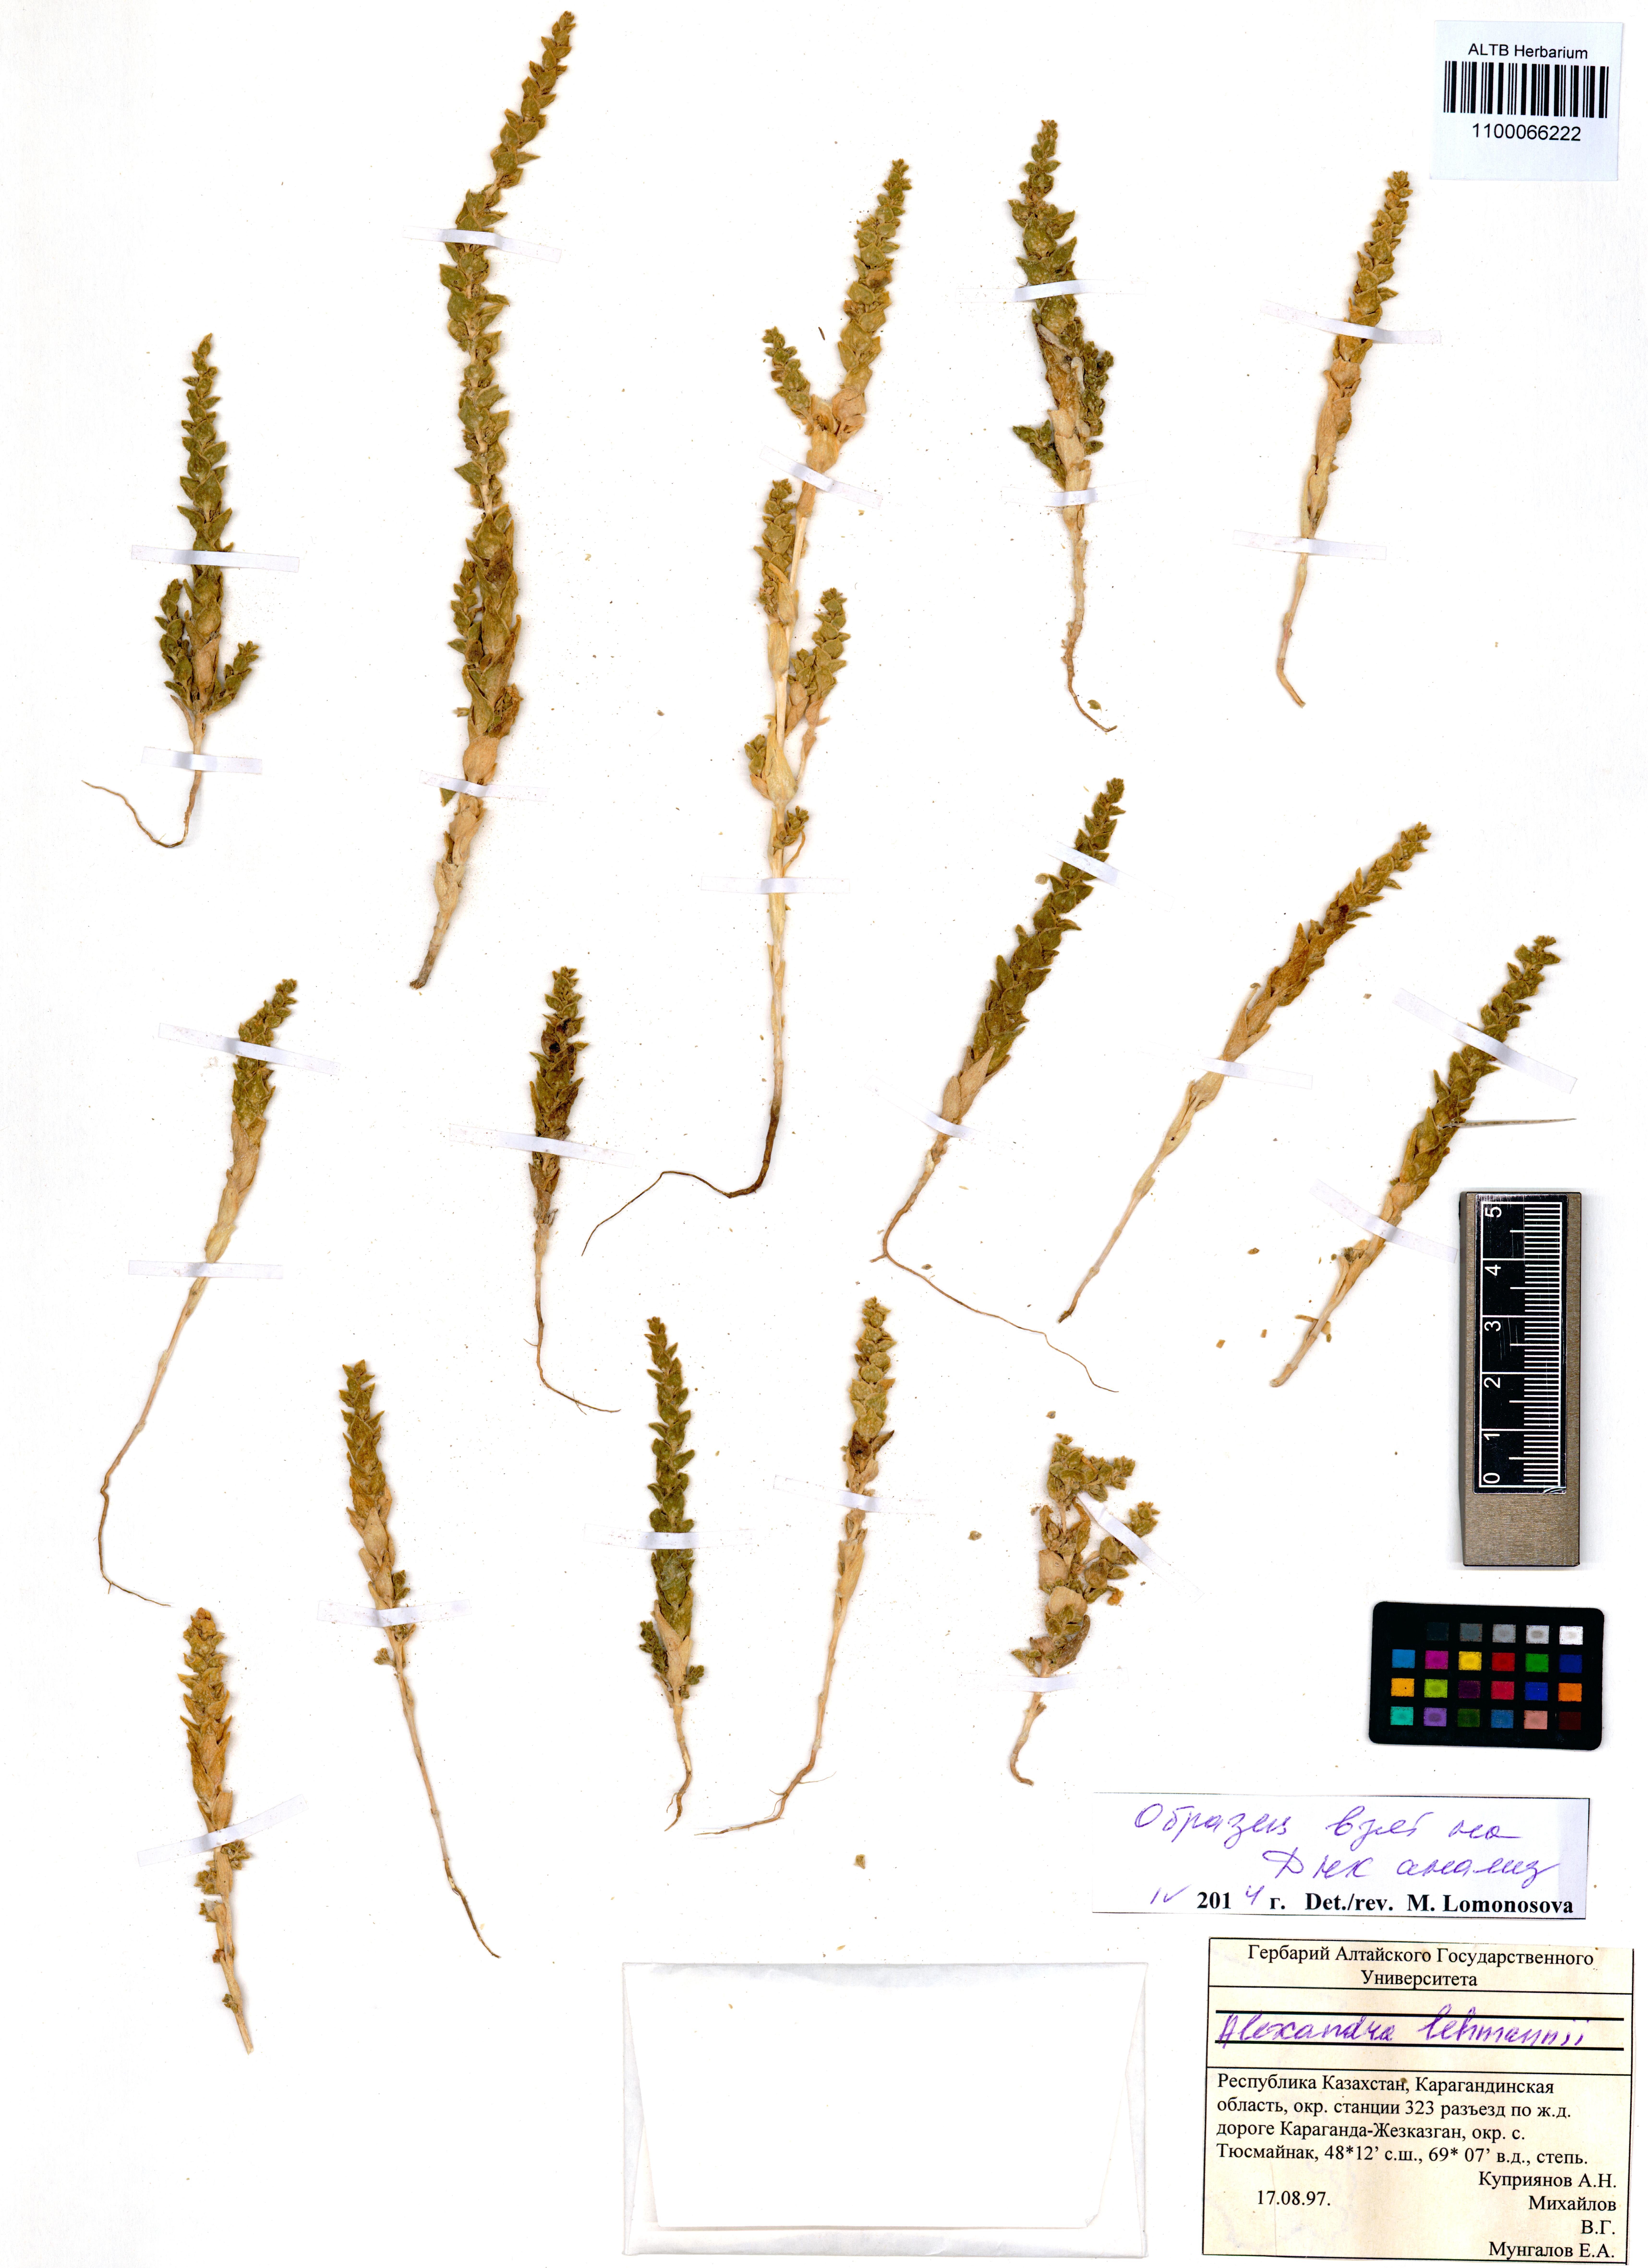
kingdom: Plantae
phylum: Tracheophyta
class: Magnoliopsida
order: Caryophyllales
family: Amaranthaceae
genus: Suaeda
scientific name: Suaeda lehmannii
